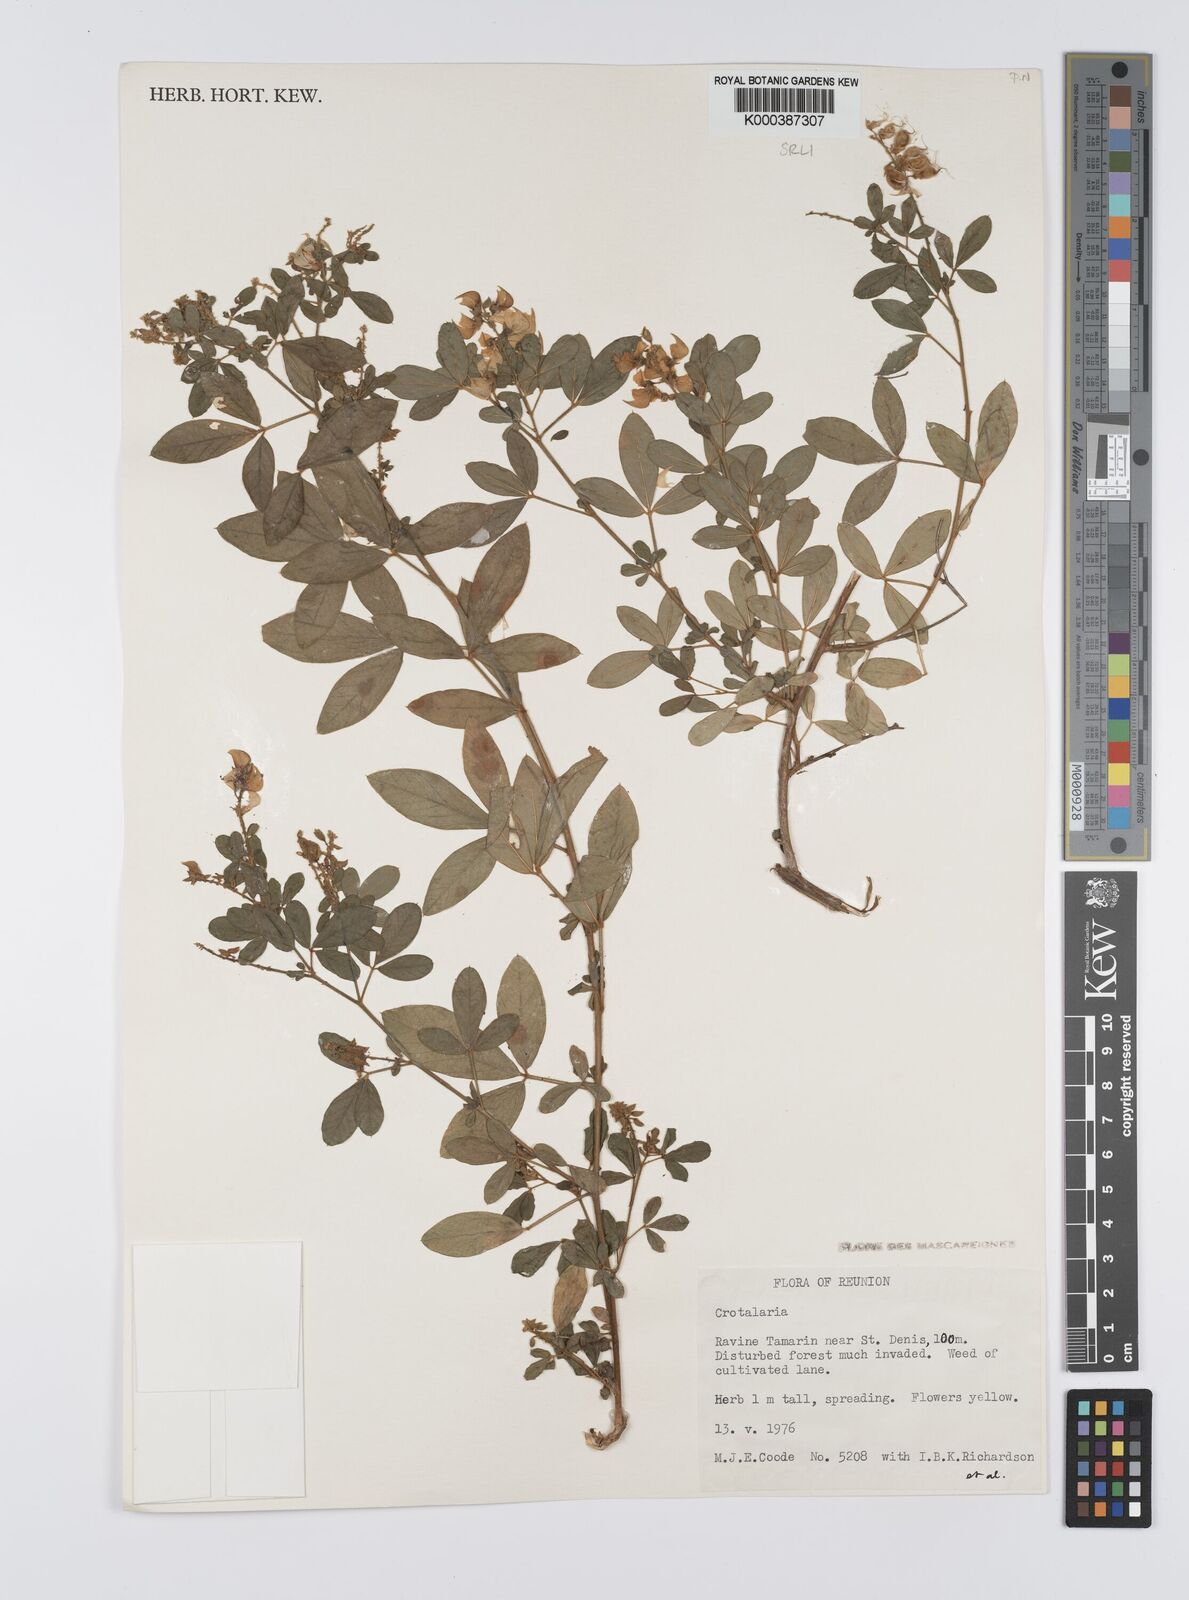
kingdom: Plantae
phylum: Tracheophyta
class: Magnoliopsida
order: Fabales
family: Fabaceae
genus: Crotalaria
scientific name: Crotalaria uncinella
